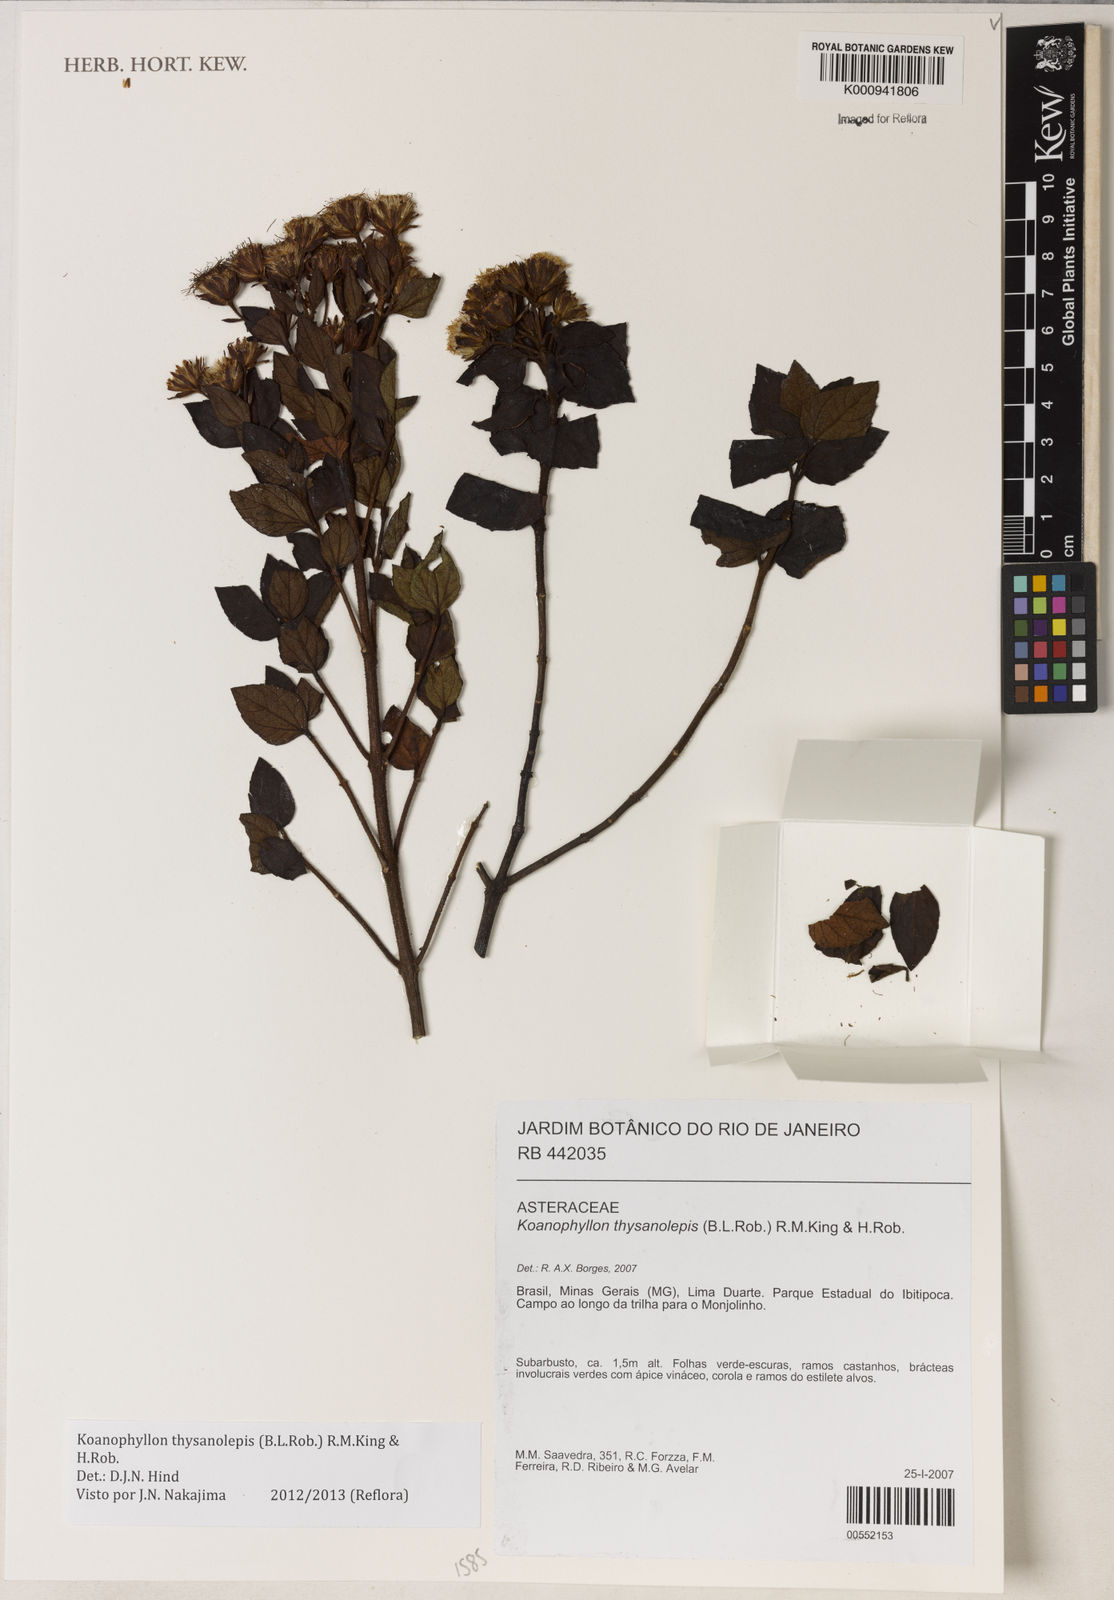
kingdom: Plantae
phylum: Tracheophyta
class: Magnoliopsida
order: Asterales
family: Asteraceae
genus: Koanophyllon
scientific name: Koanophyllon thysanolepis
